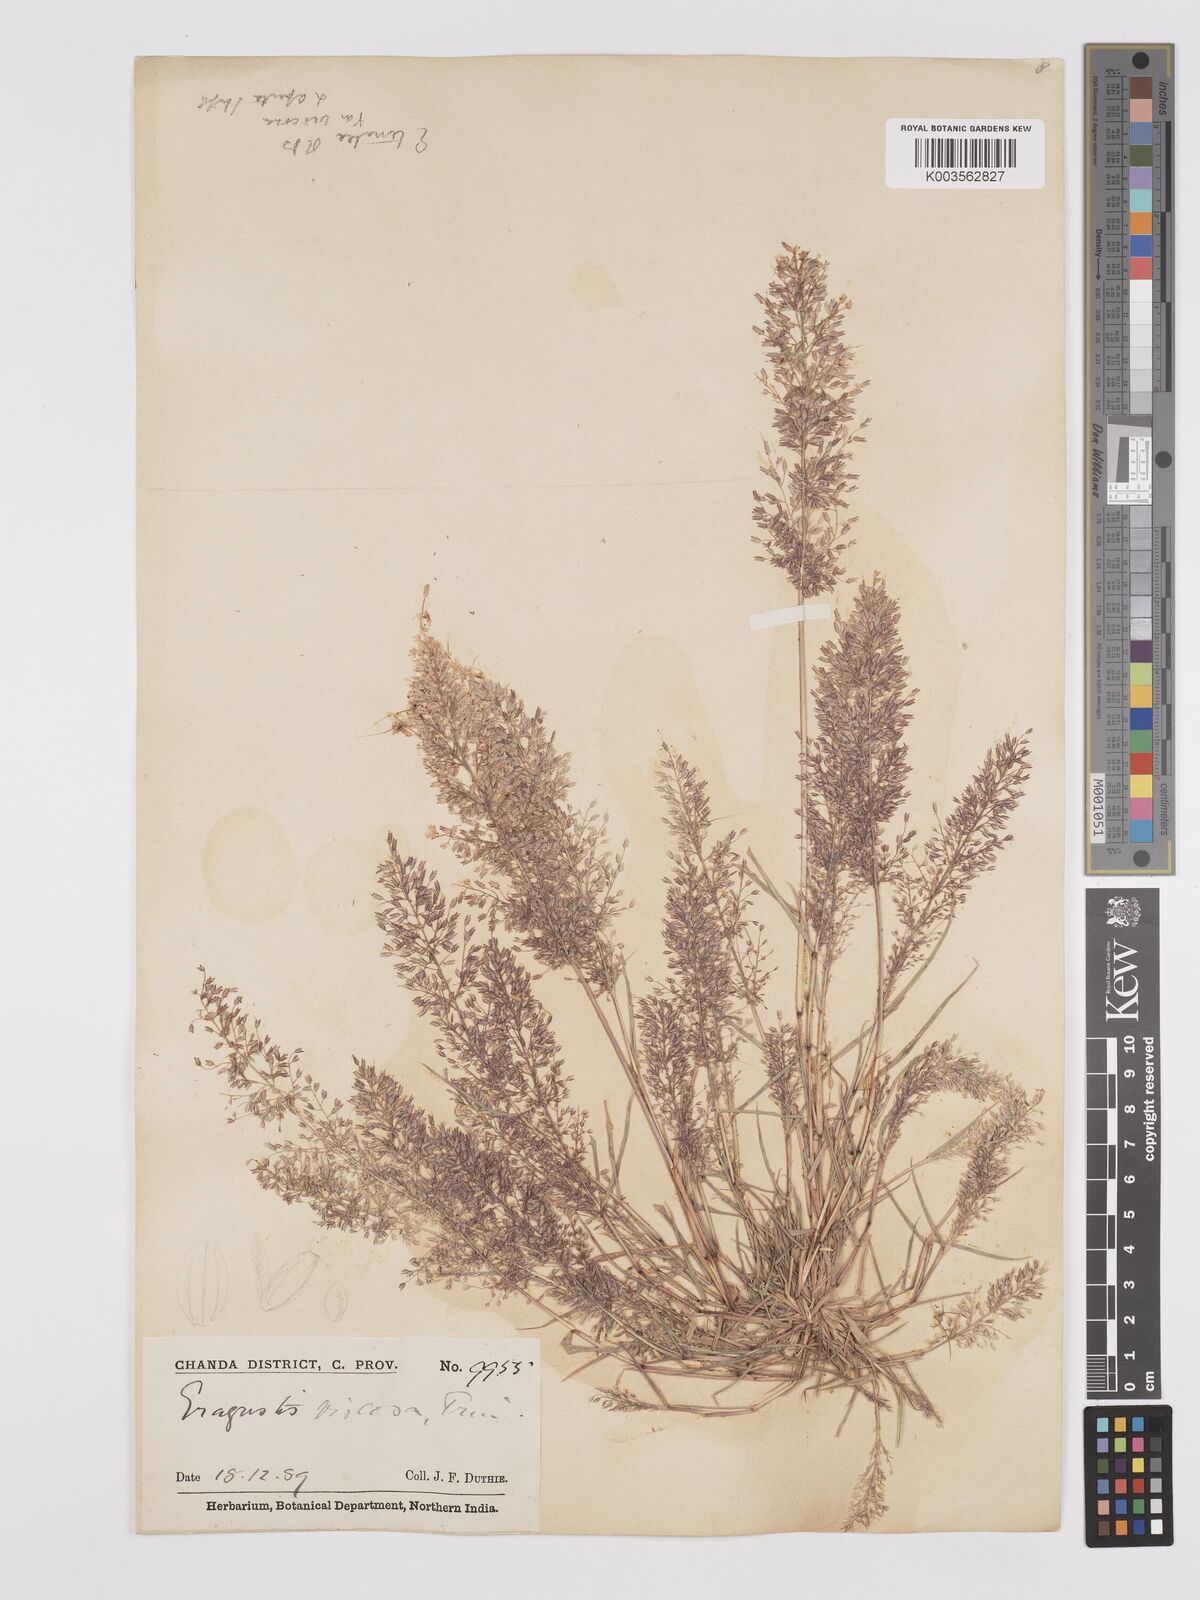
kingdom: Plantae
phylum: Tracheophyta
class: Liliopsida
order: Poales
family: Poaceae
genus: Eragrostis
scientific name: Eragrostis viscosa
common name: Sticky love grass
